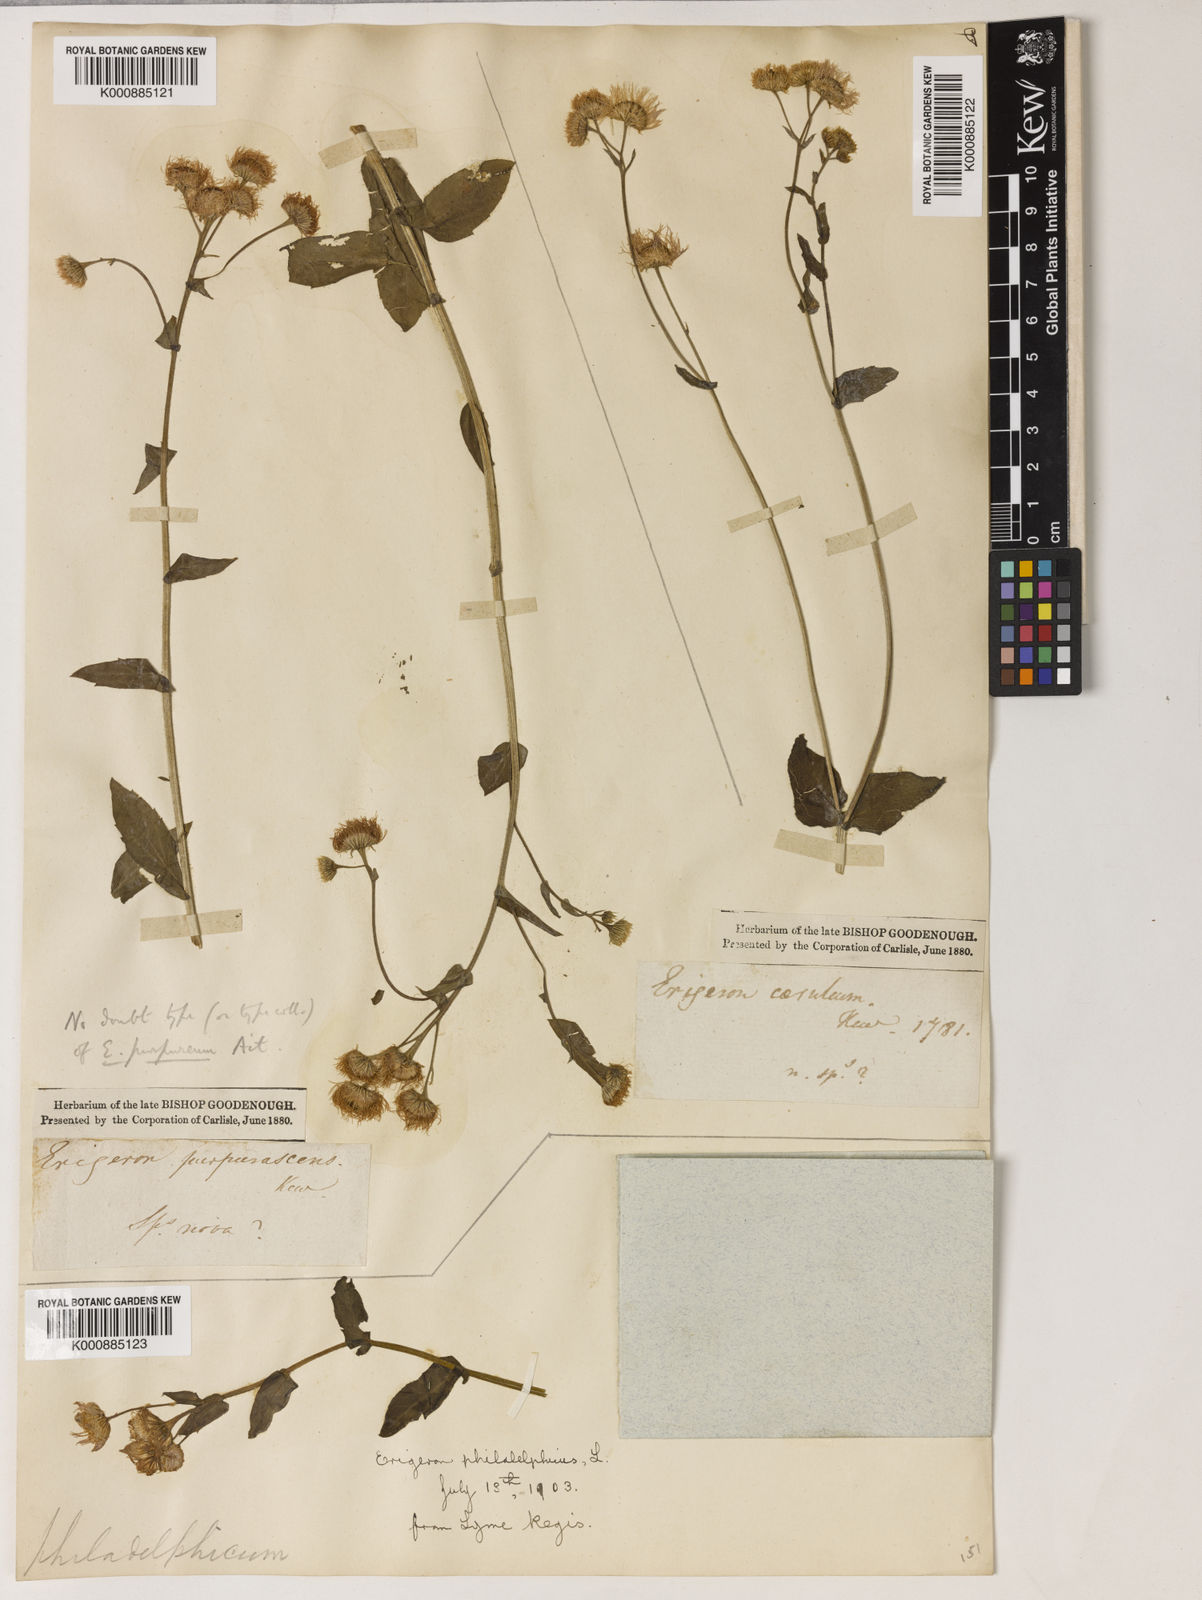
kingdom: Plantae
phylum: Tracheophyta
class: Magnoliopsida
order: Asterales
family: Asteraceae
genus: Erigeron
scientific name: Erigeron pulchellus
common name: Hairy fleabane
